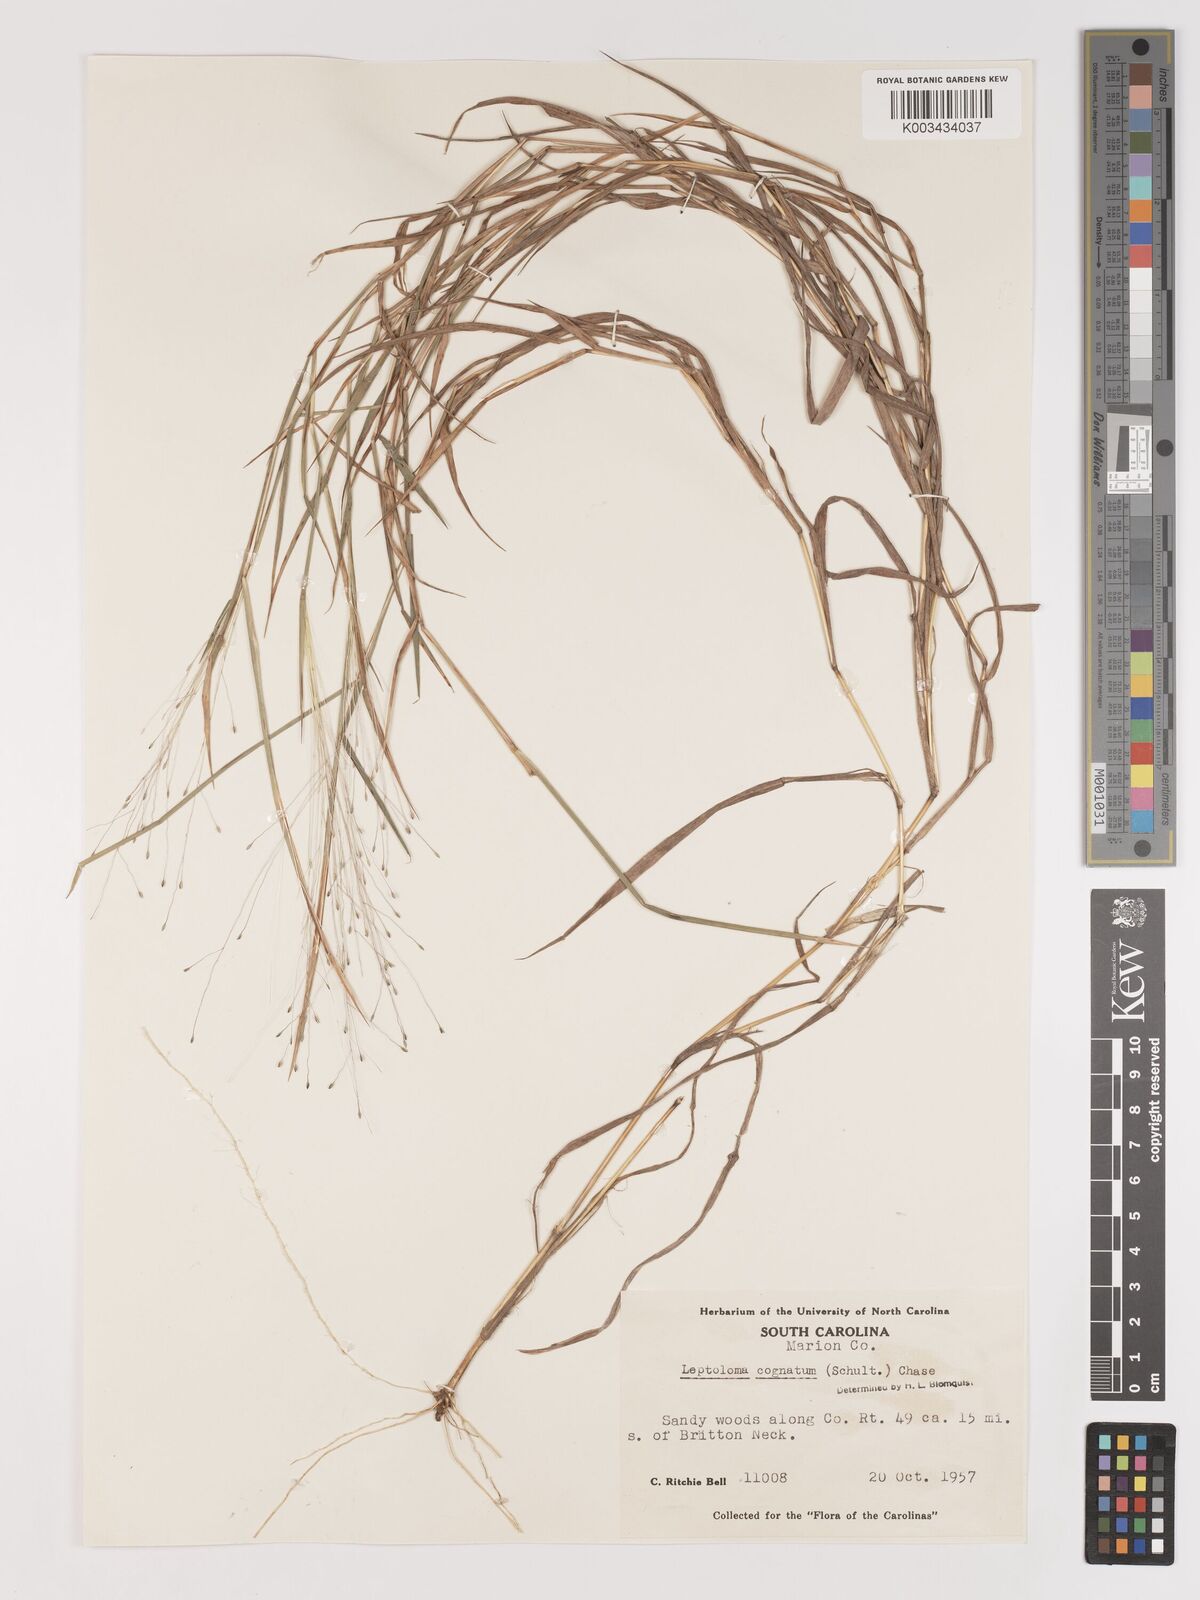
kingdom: Plantae
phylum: Tracheophyta
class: Liliopsida
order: Poales
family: Poaceae
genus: Digitaria
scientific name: Digitaria cognata
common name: Fall witchgrass
